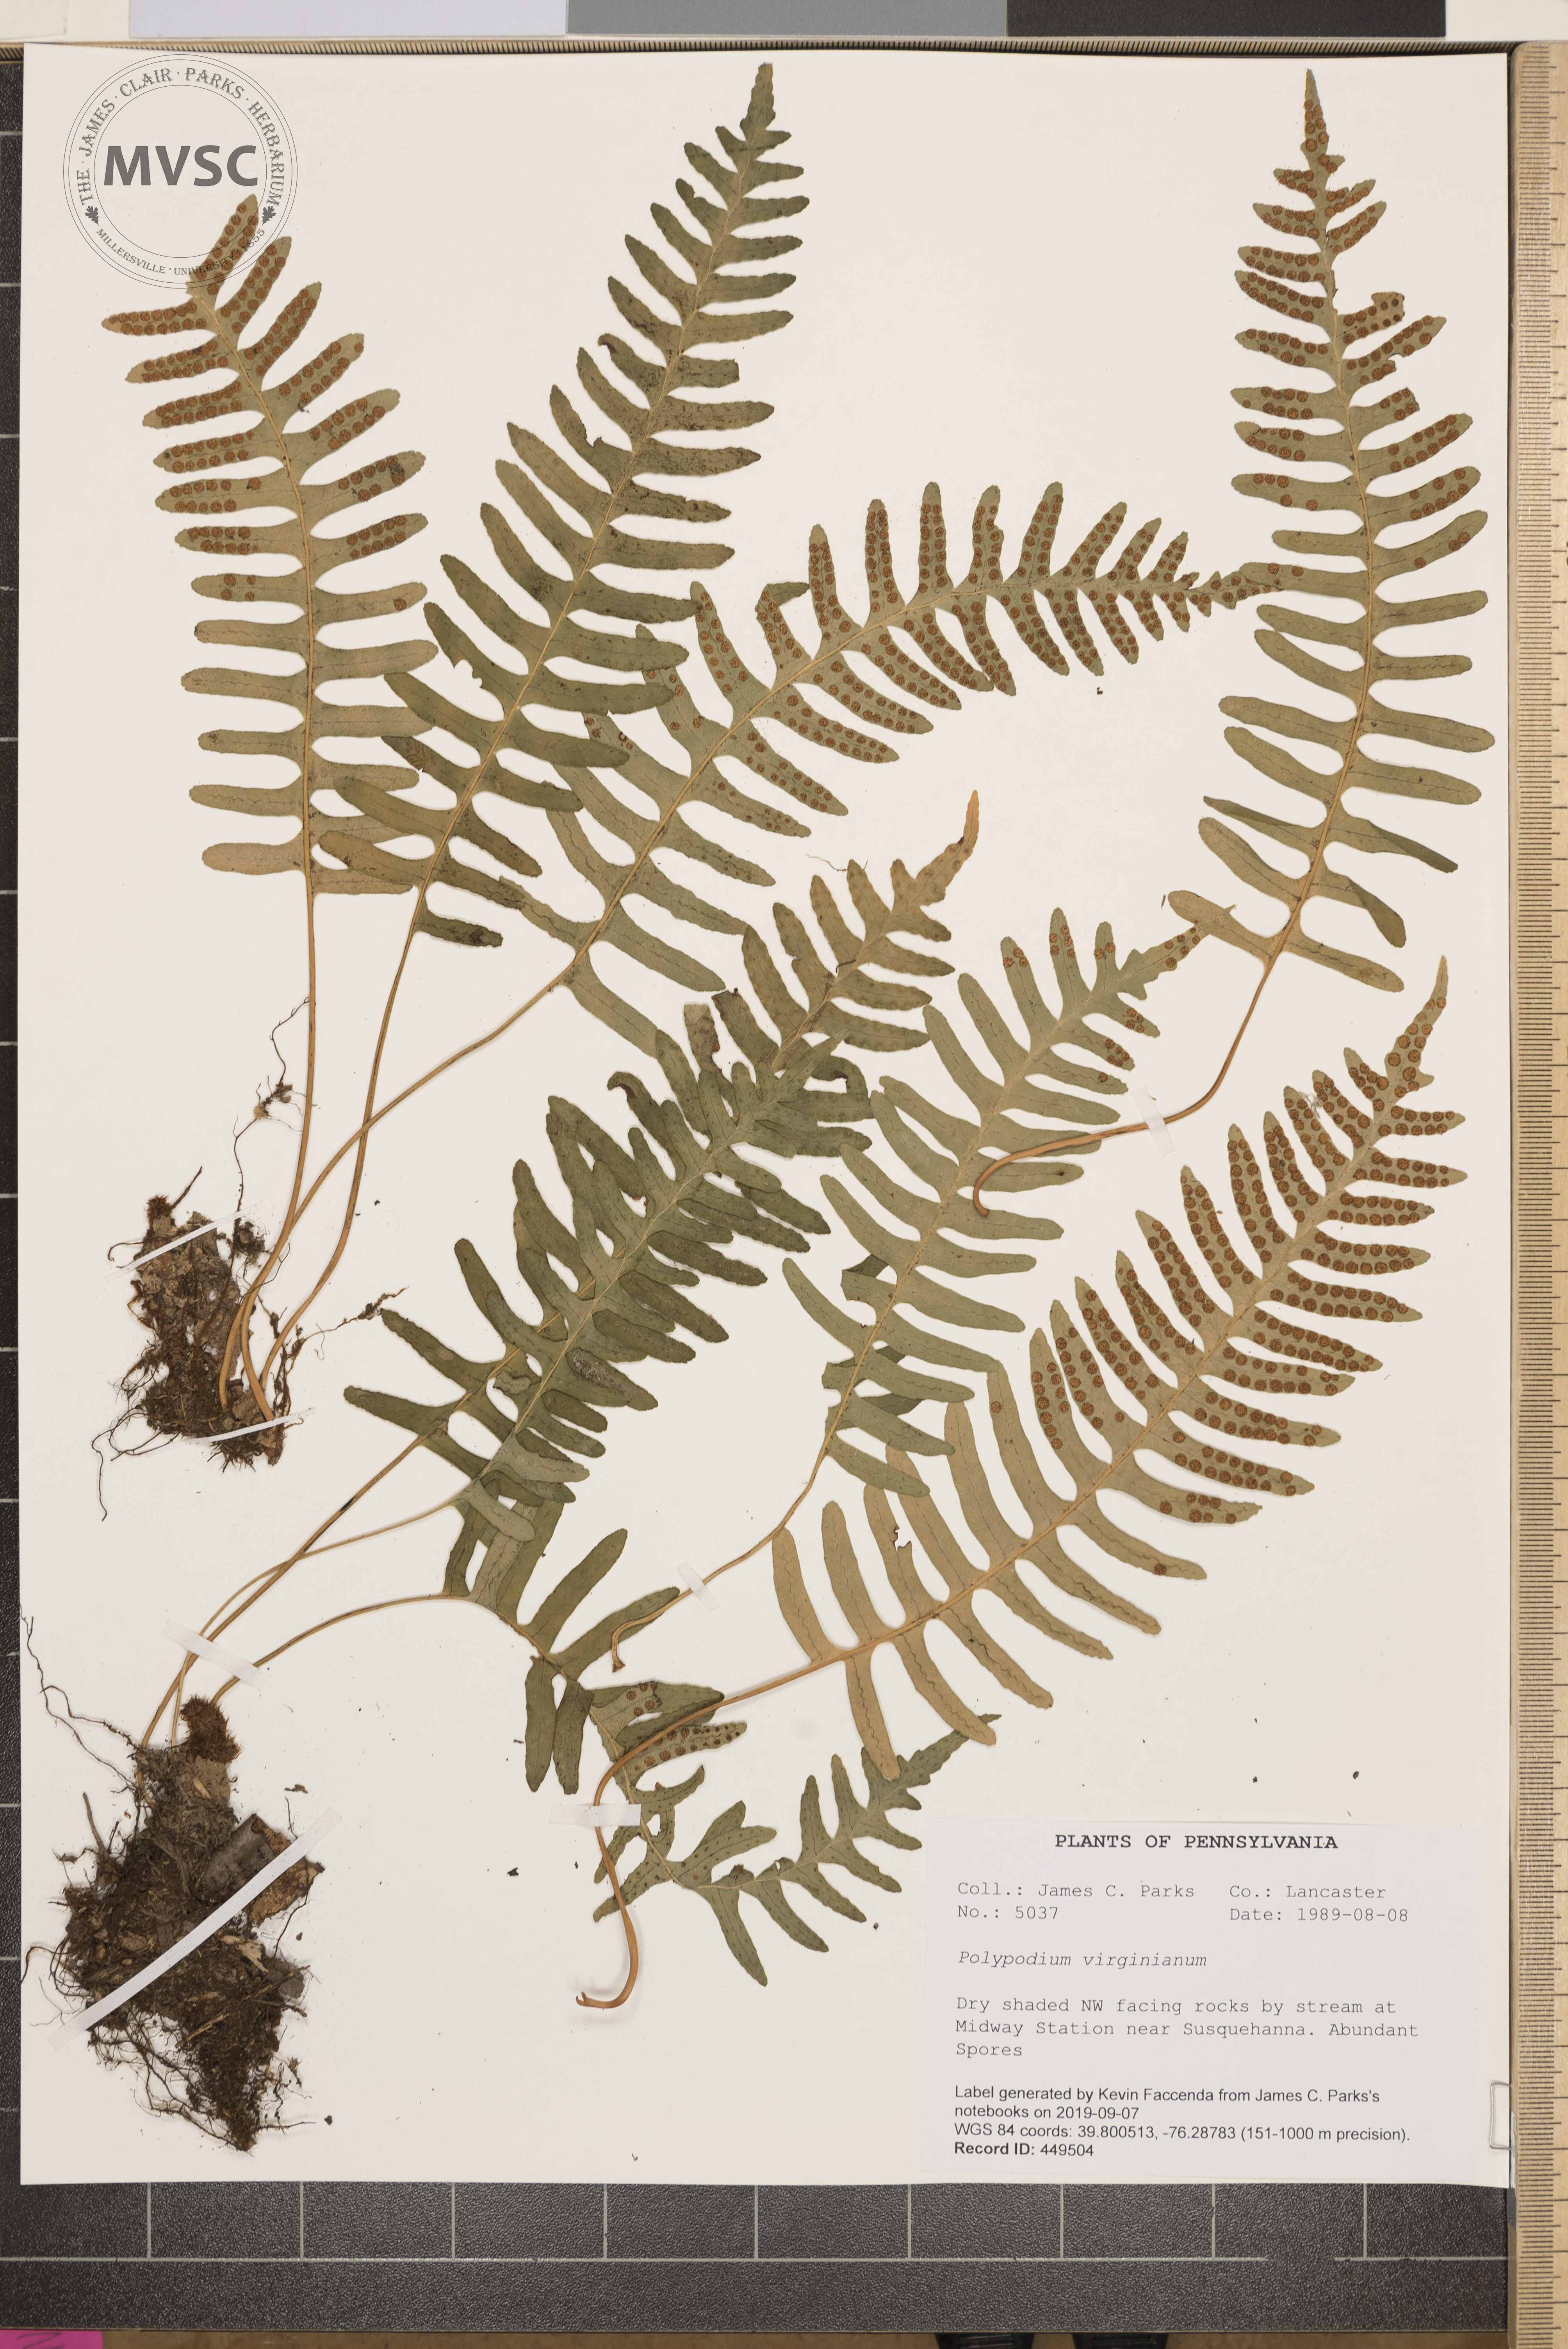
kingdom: Plantae
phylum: Tracheophyta
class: Polypodiopsida
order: Polypodiales
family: Polypodiaceae
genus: Polypodium
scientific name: Polypodium virginianum
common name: American wall fern
